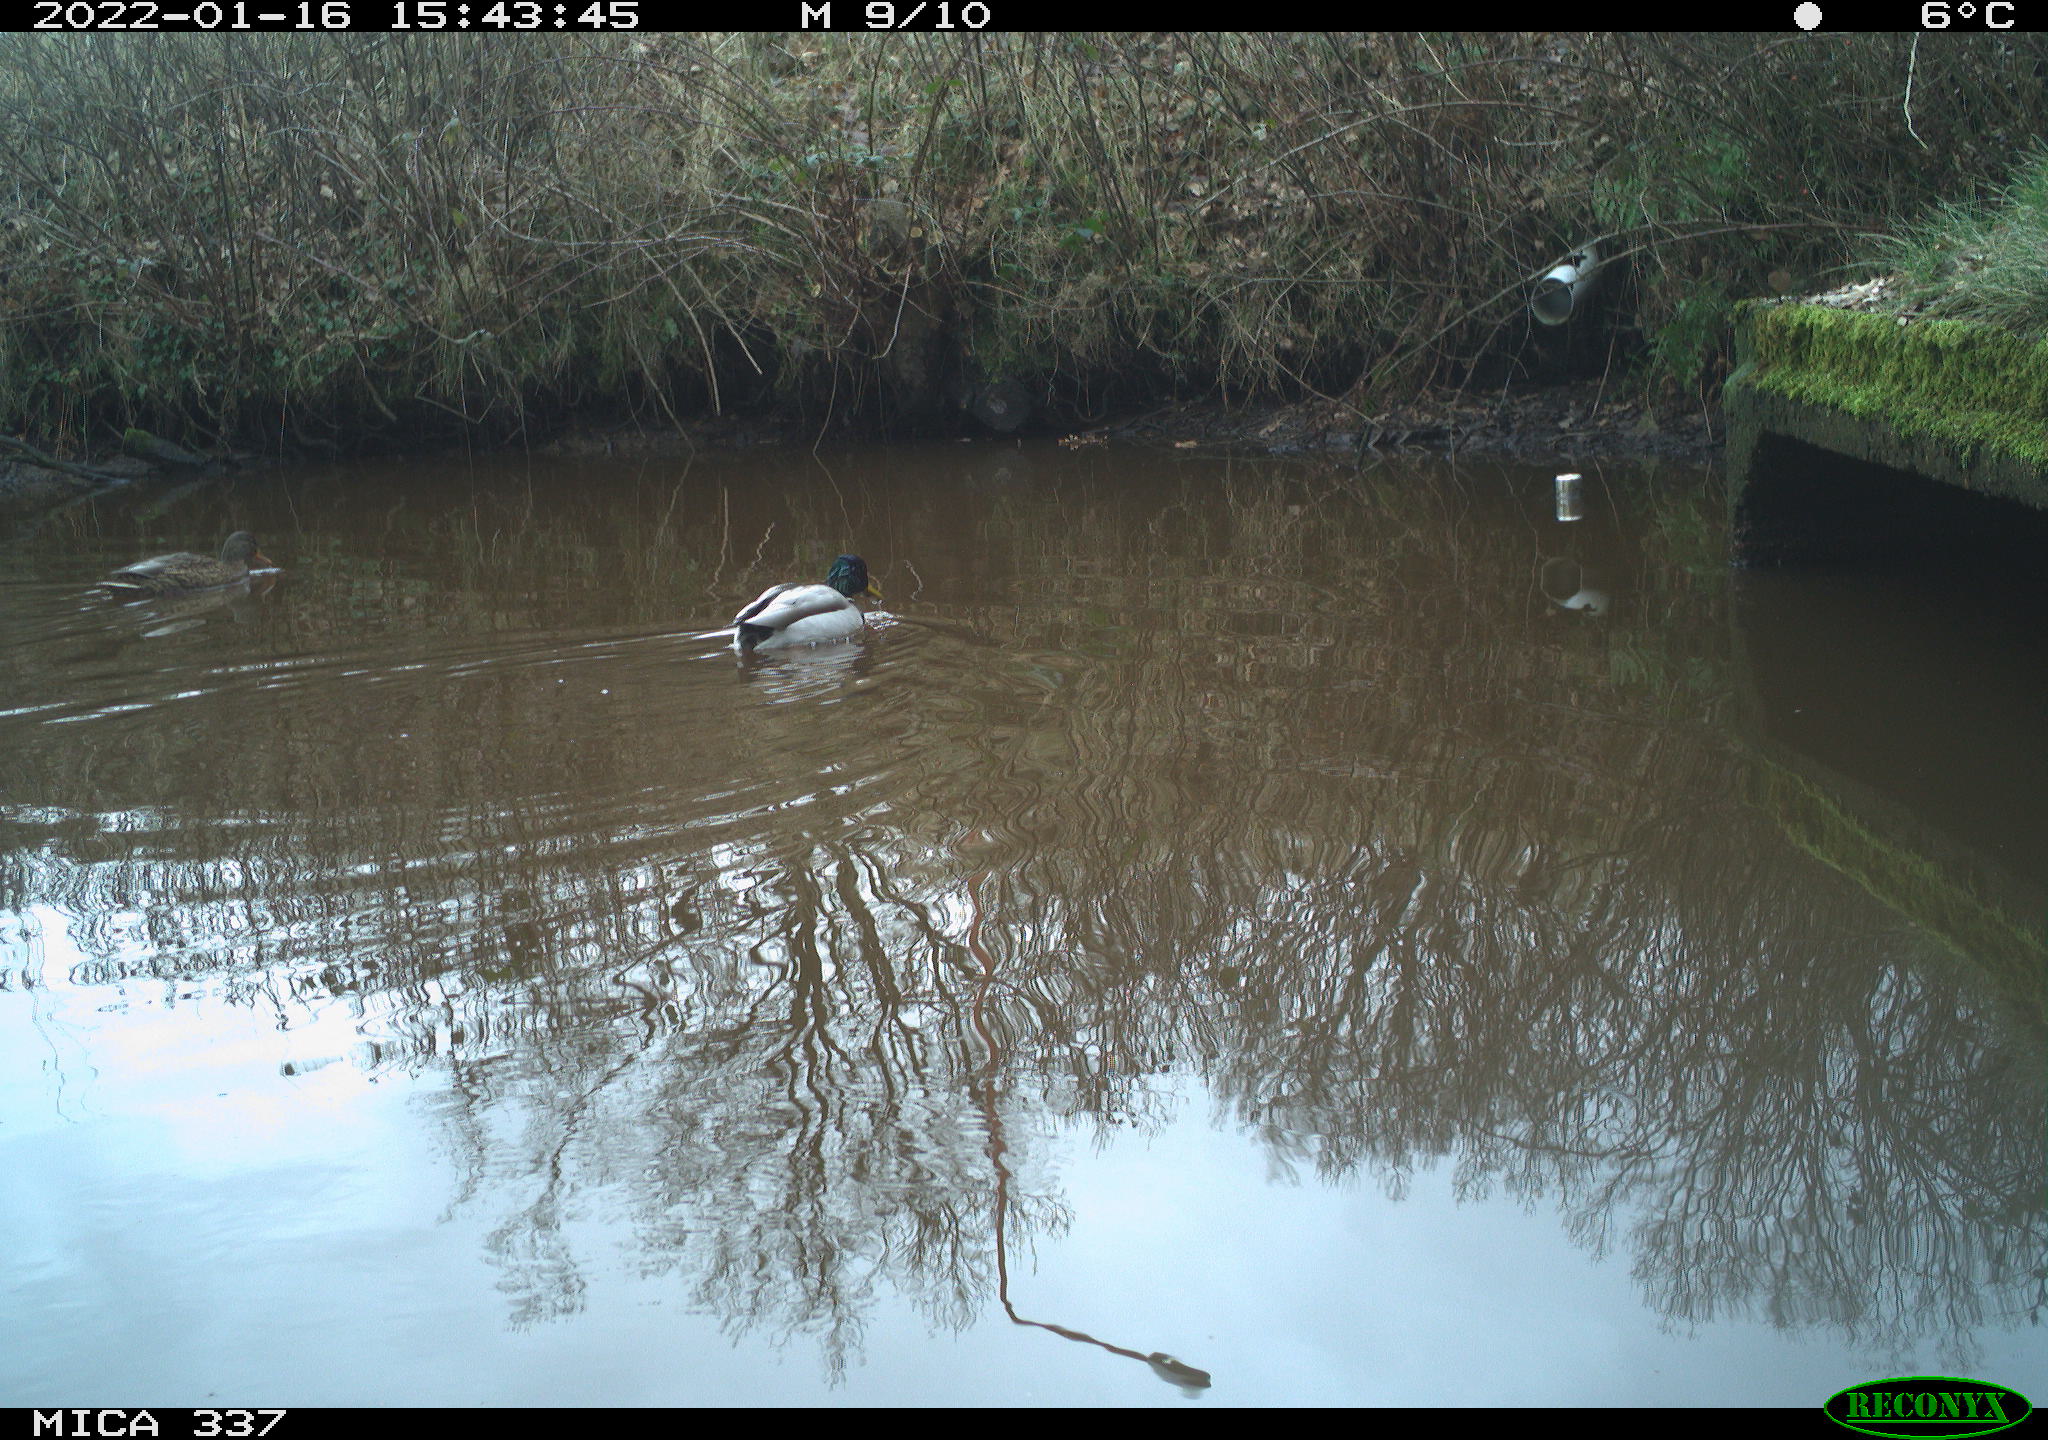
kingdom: Animalia
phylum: Chordata
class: Aves
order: Anseriformes
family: Anatidae
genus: Anas
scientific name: Anas platyrhynchos
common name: Mallard
